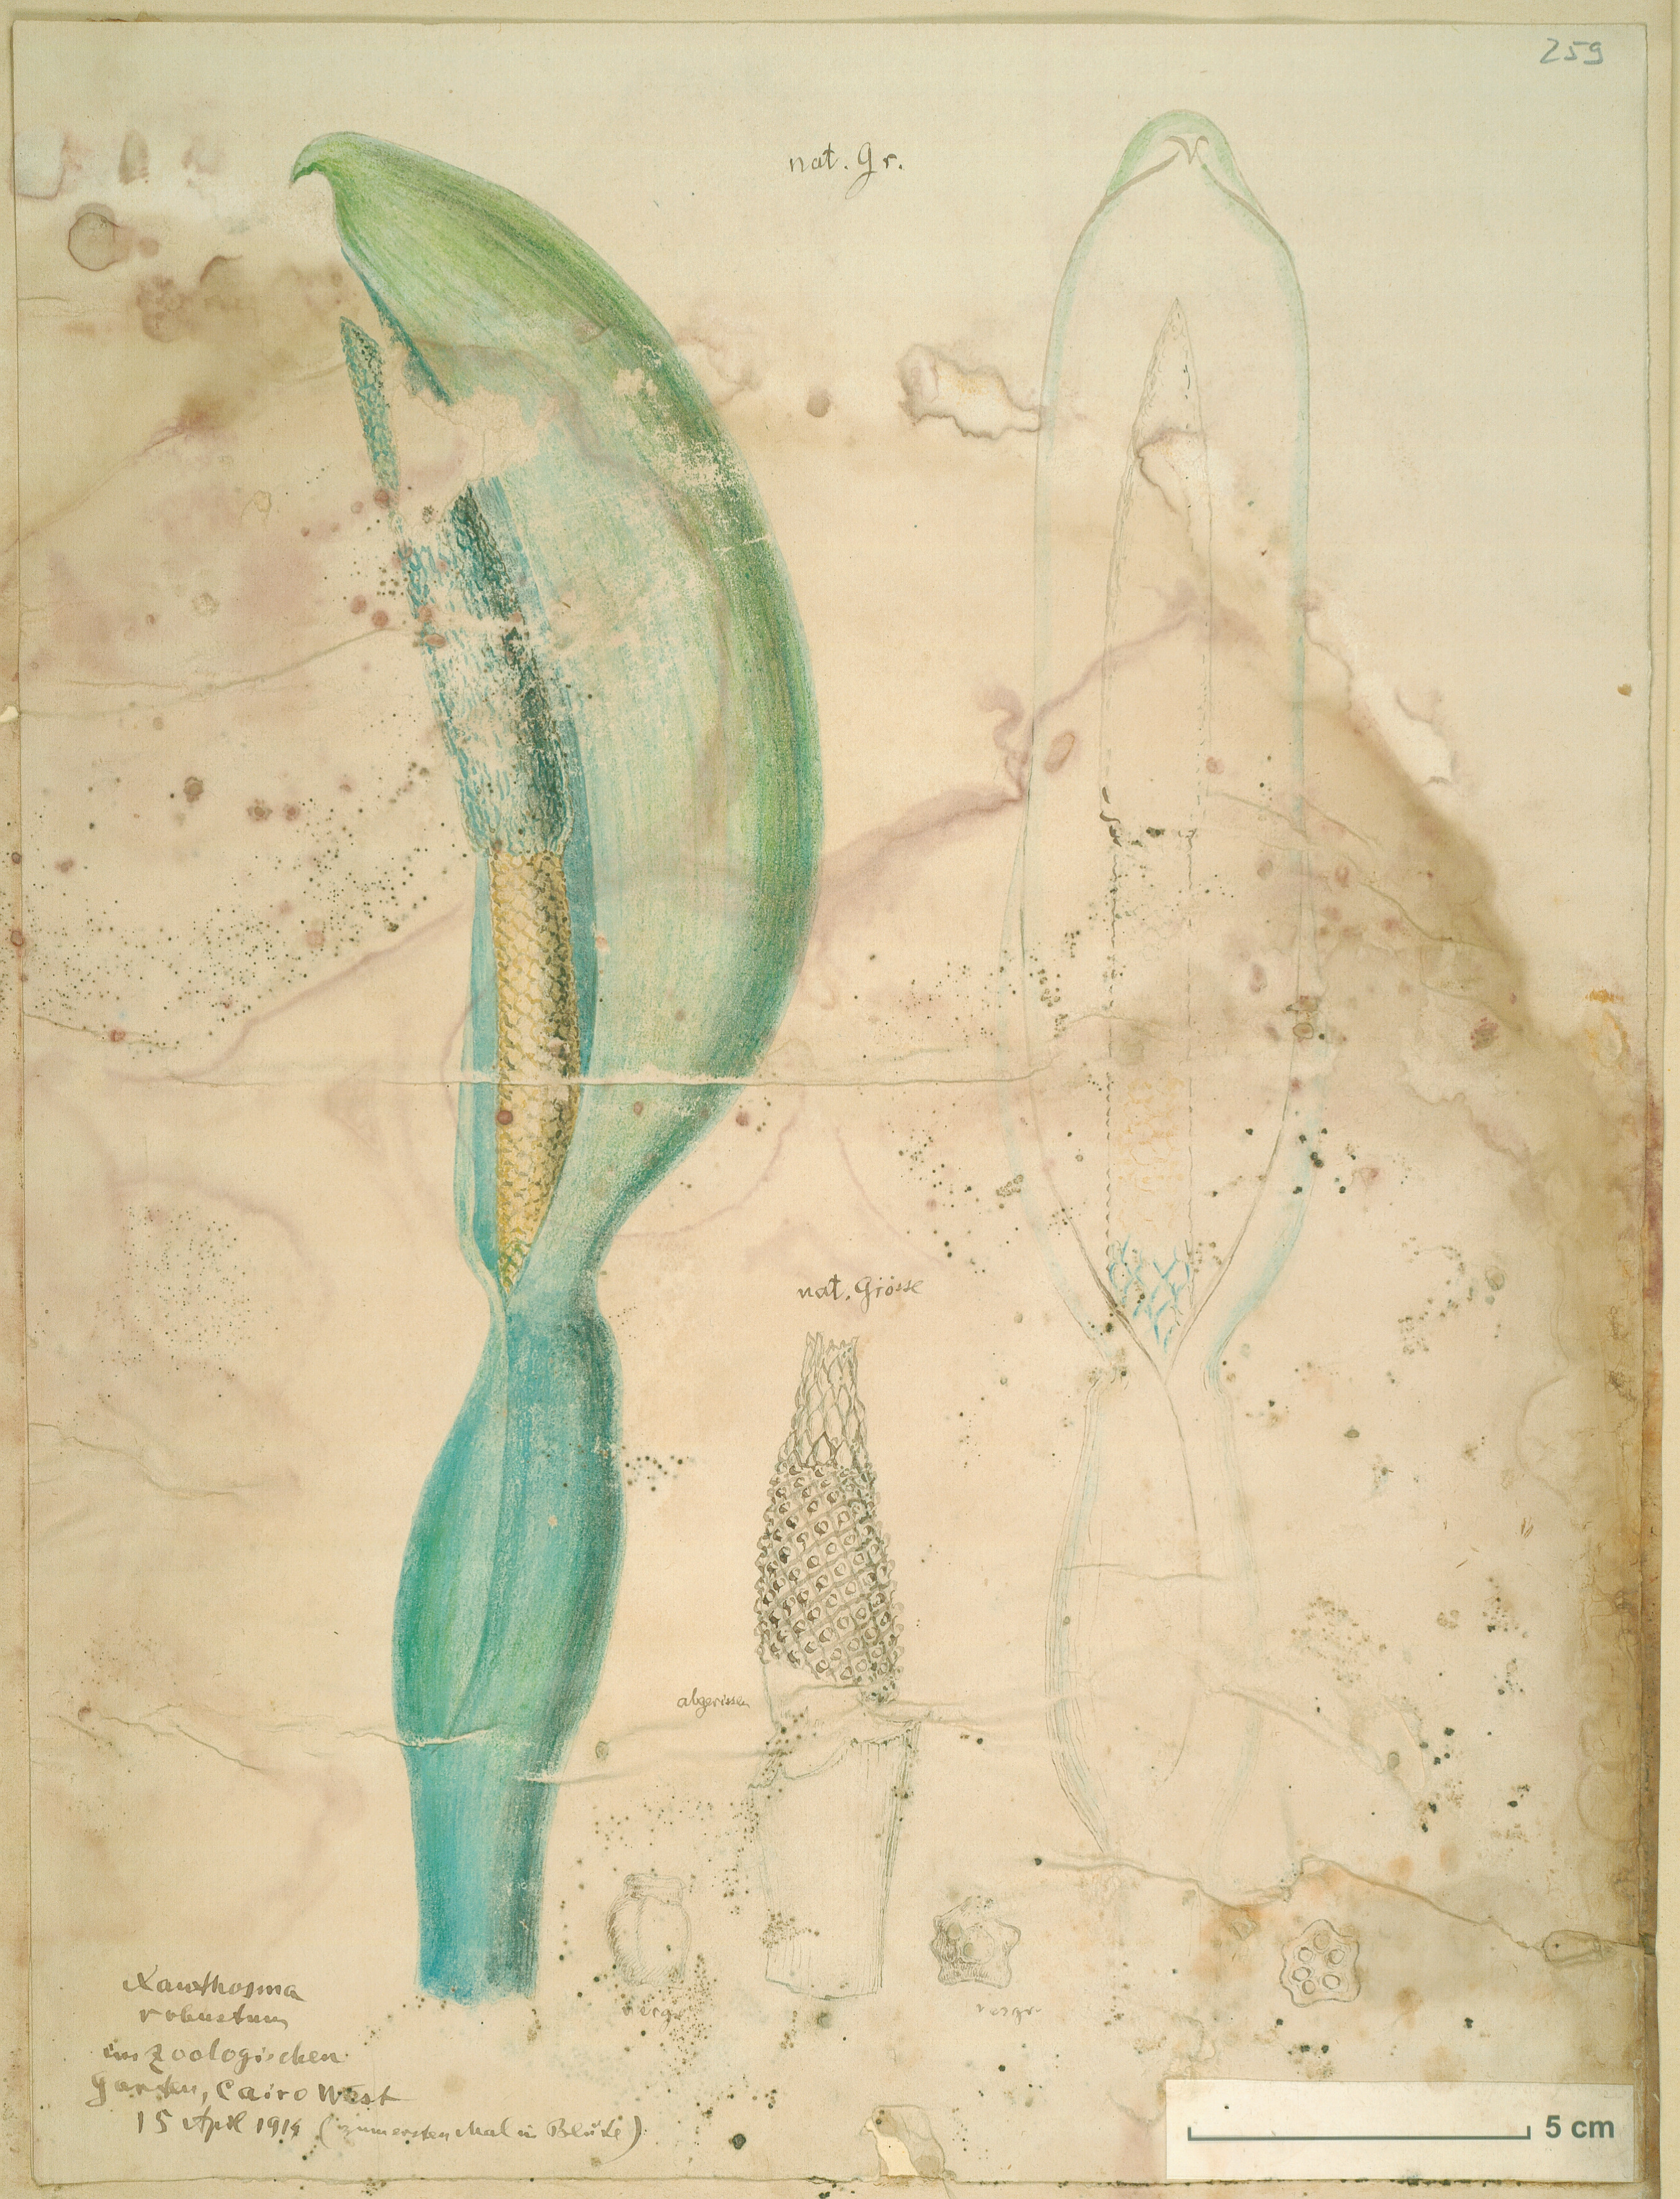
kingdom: Plantae
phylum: Tracheophyta
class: Liliopsida
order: Alismatales
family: Araceae
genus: Xanthosoma
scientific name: Xanthosoma robustum
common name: Capote
